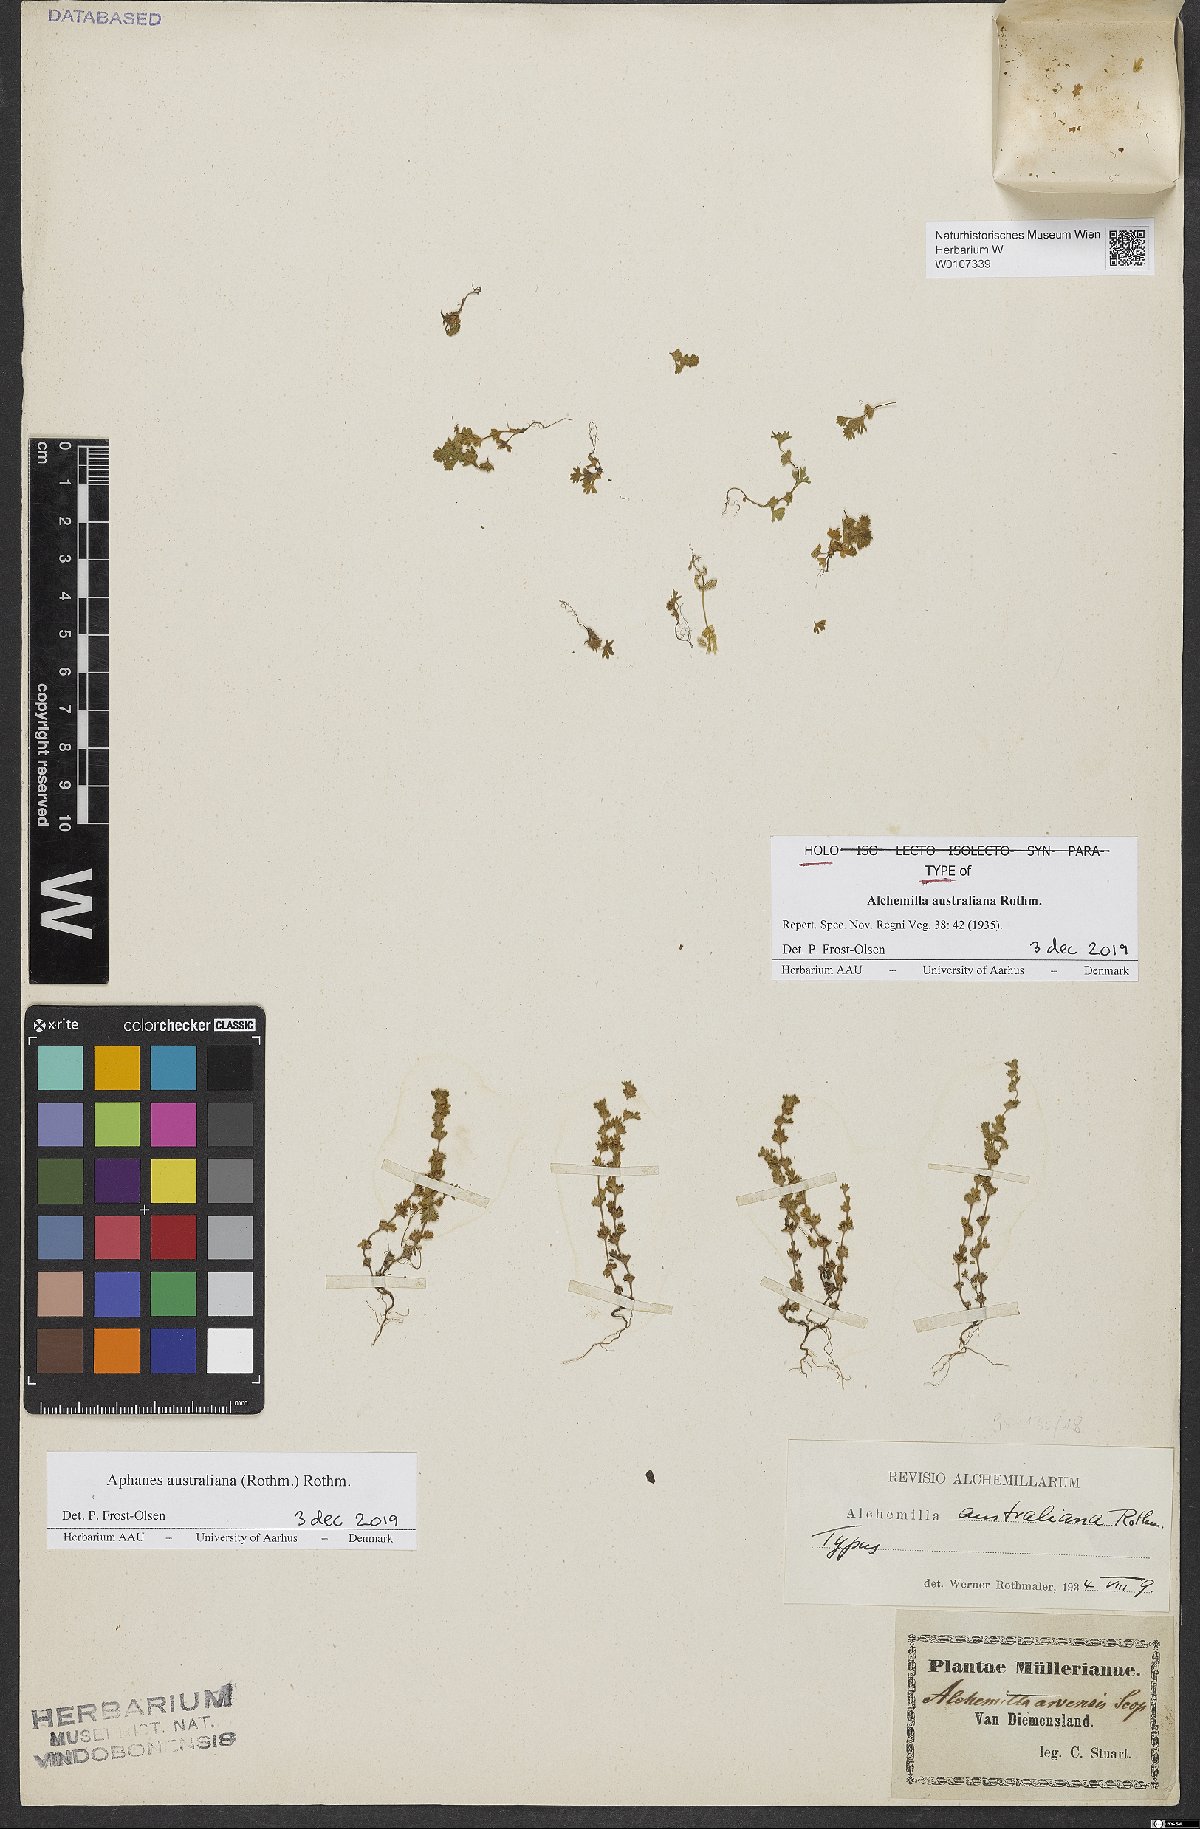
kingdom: Plantae
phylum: Tracheophyta
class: Magnoliopsida
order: Rosales
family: Rosaceae
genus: Aphanes
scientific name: Aphanes australiana
